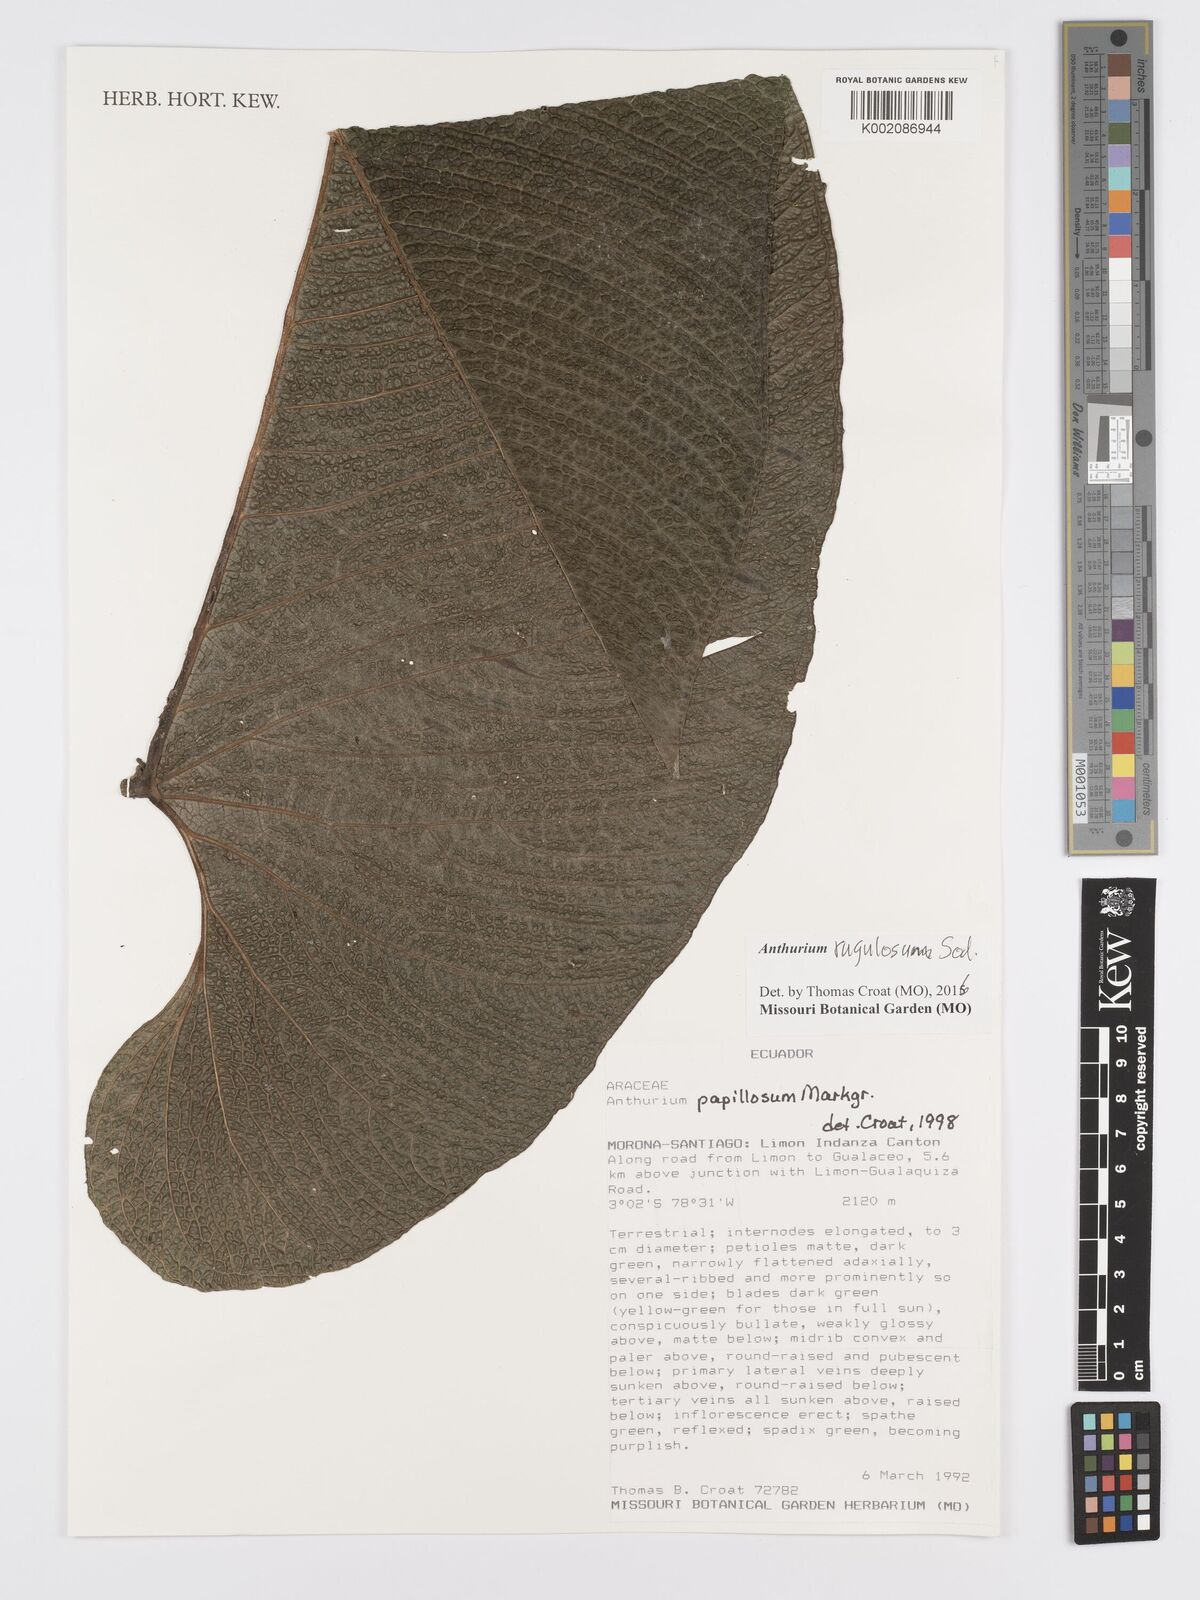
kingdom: Plantae
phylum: Tracheophyta
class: Liliopsida
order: Alismatales
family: Araceae
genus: Anthurium
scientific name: Anthurium rugulosum
